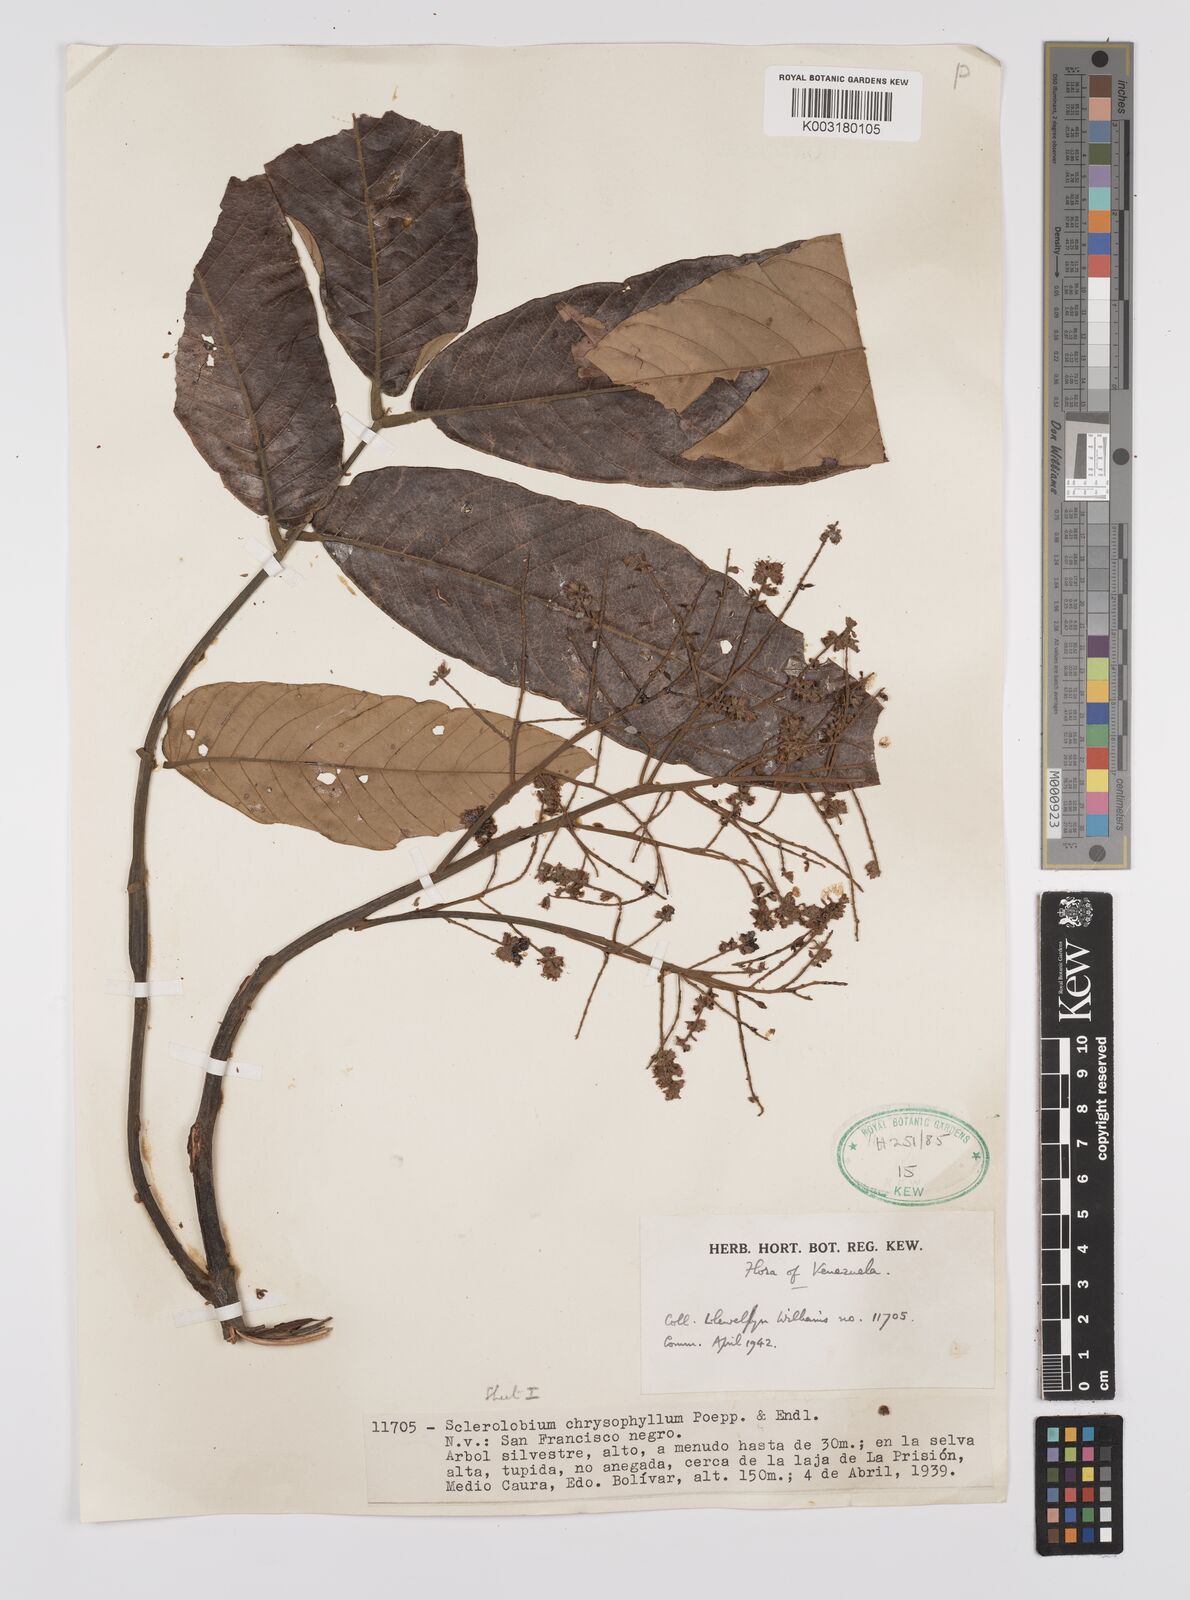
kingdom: Plantae
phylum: Tracheophyta
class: Magnoliopsida
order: Fabales
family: Fabaceae
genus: Tachigali
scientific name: Tachigali chrysophylla
